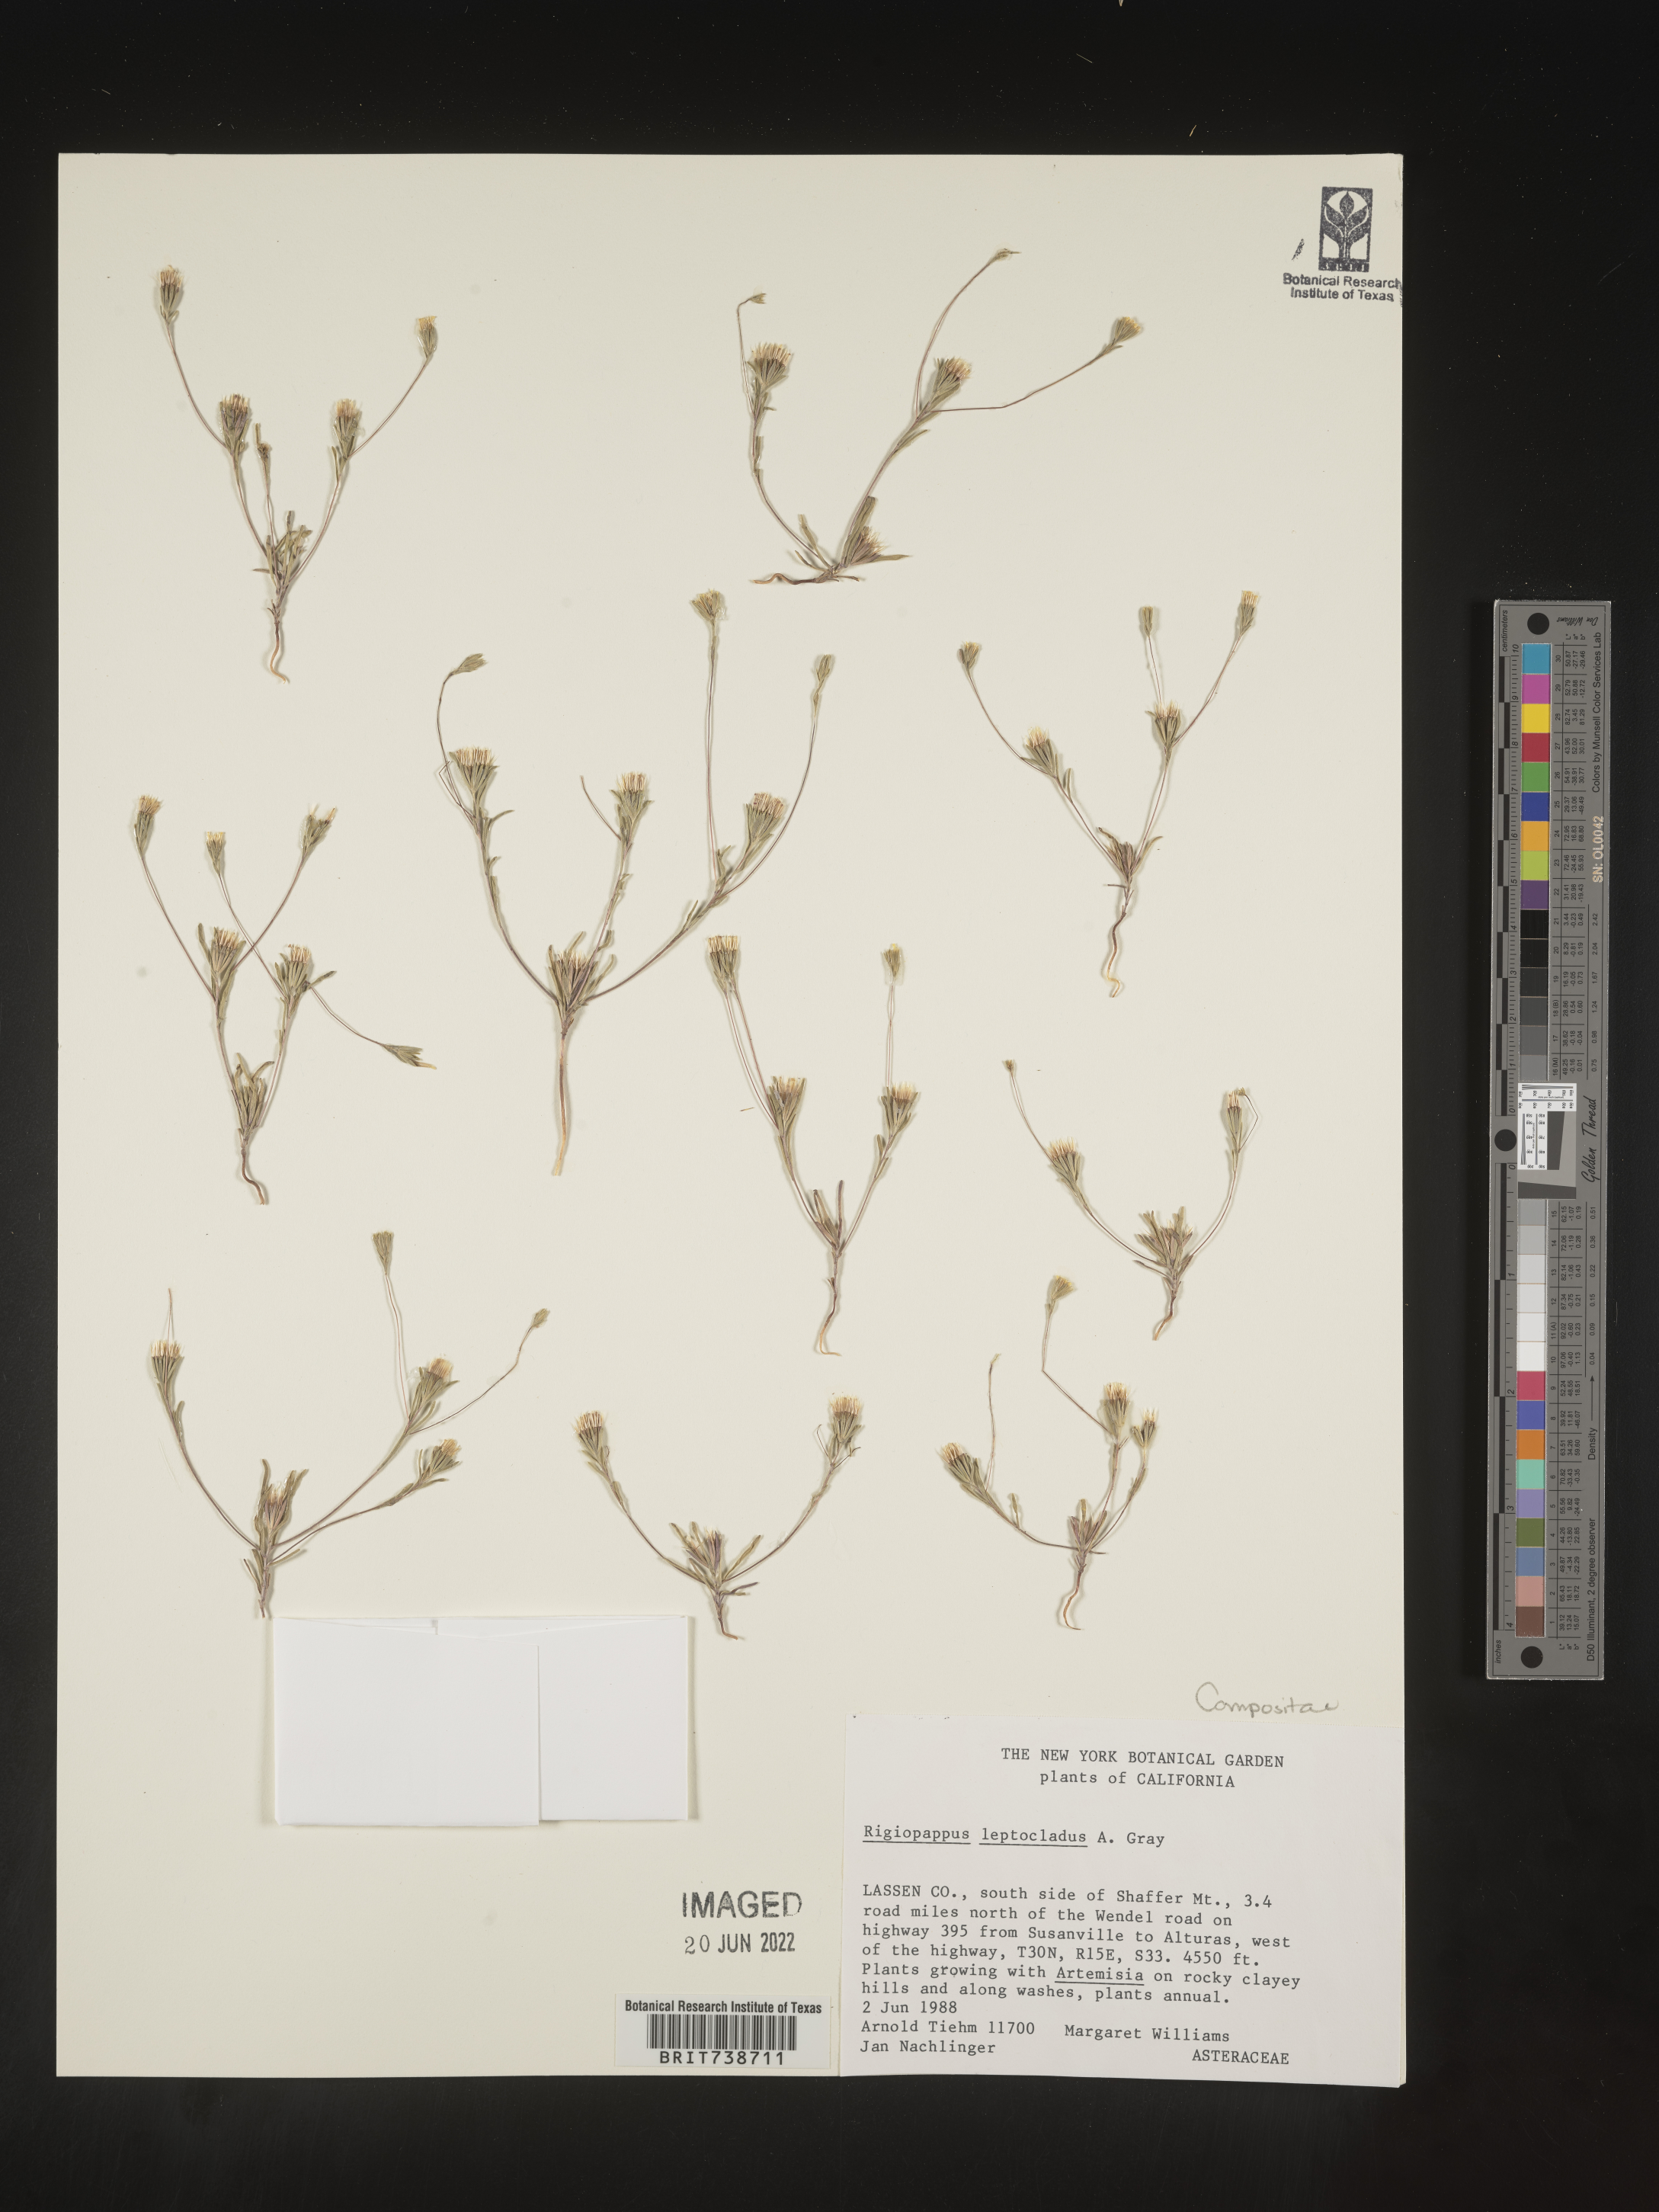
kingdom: Plantae
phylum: Tracheophyta
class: Magnoliopsida
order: Asterales
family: Asteraceae
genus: Rigiopappus
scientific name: Rigiopappus
